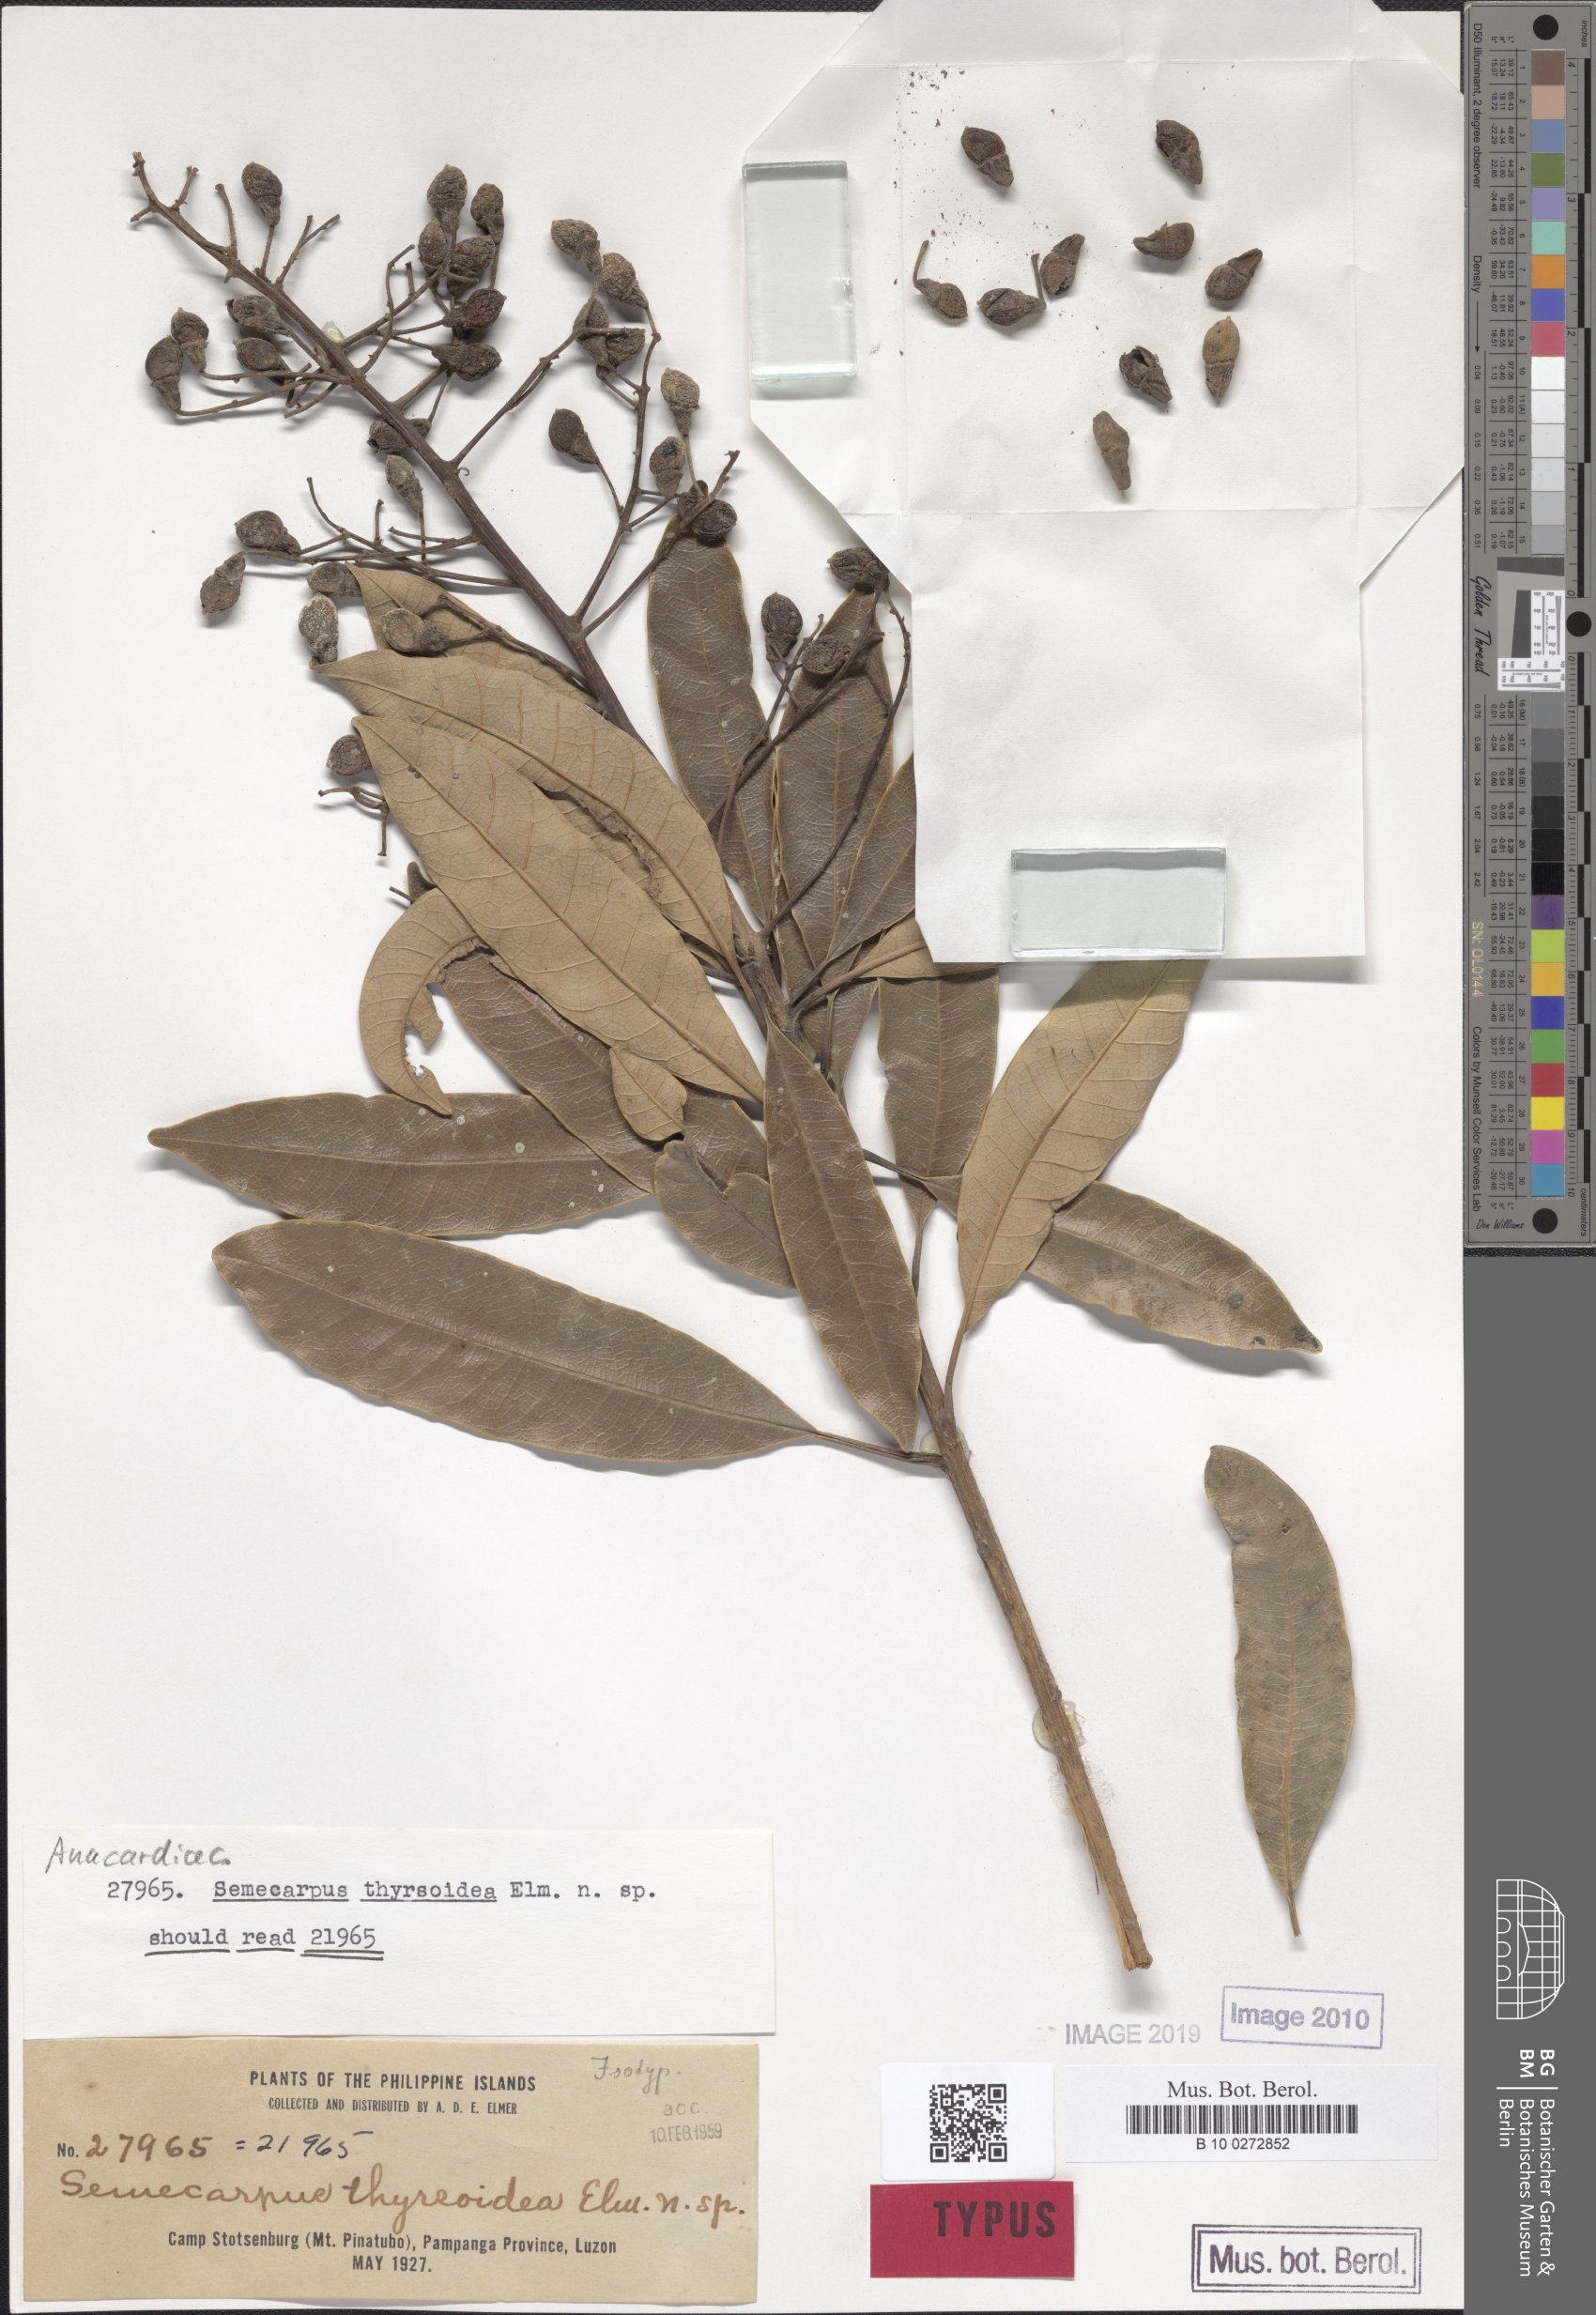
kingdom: Plantae
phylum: Tracheophyta
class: Magnoliopsida
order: Sapindales
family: Anacardiaceae
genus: Semecarpus
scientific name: Semecarpus cuneiformis
